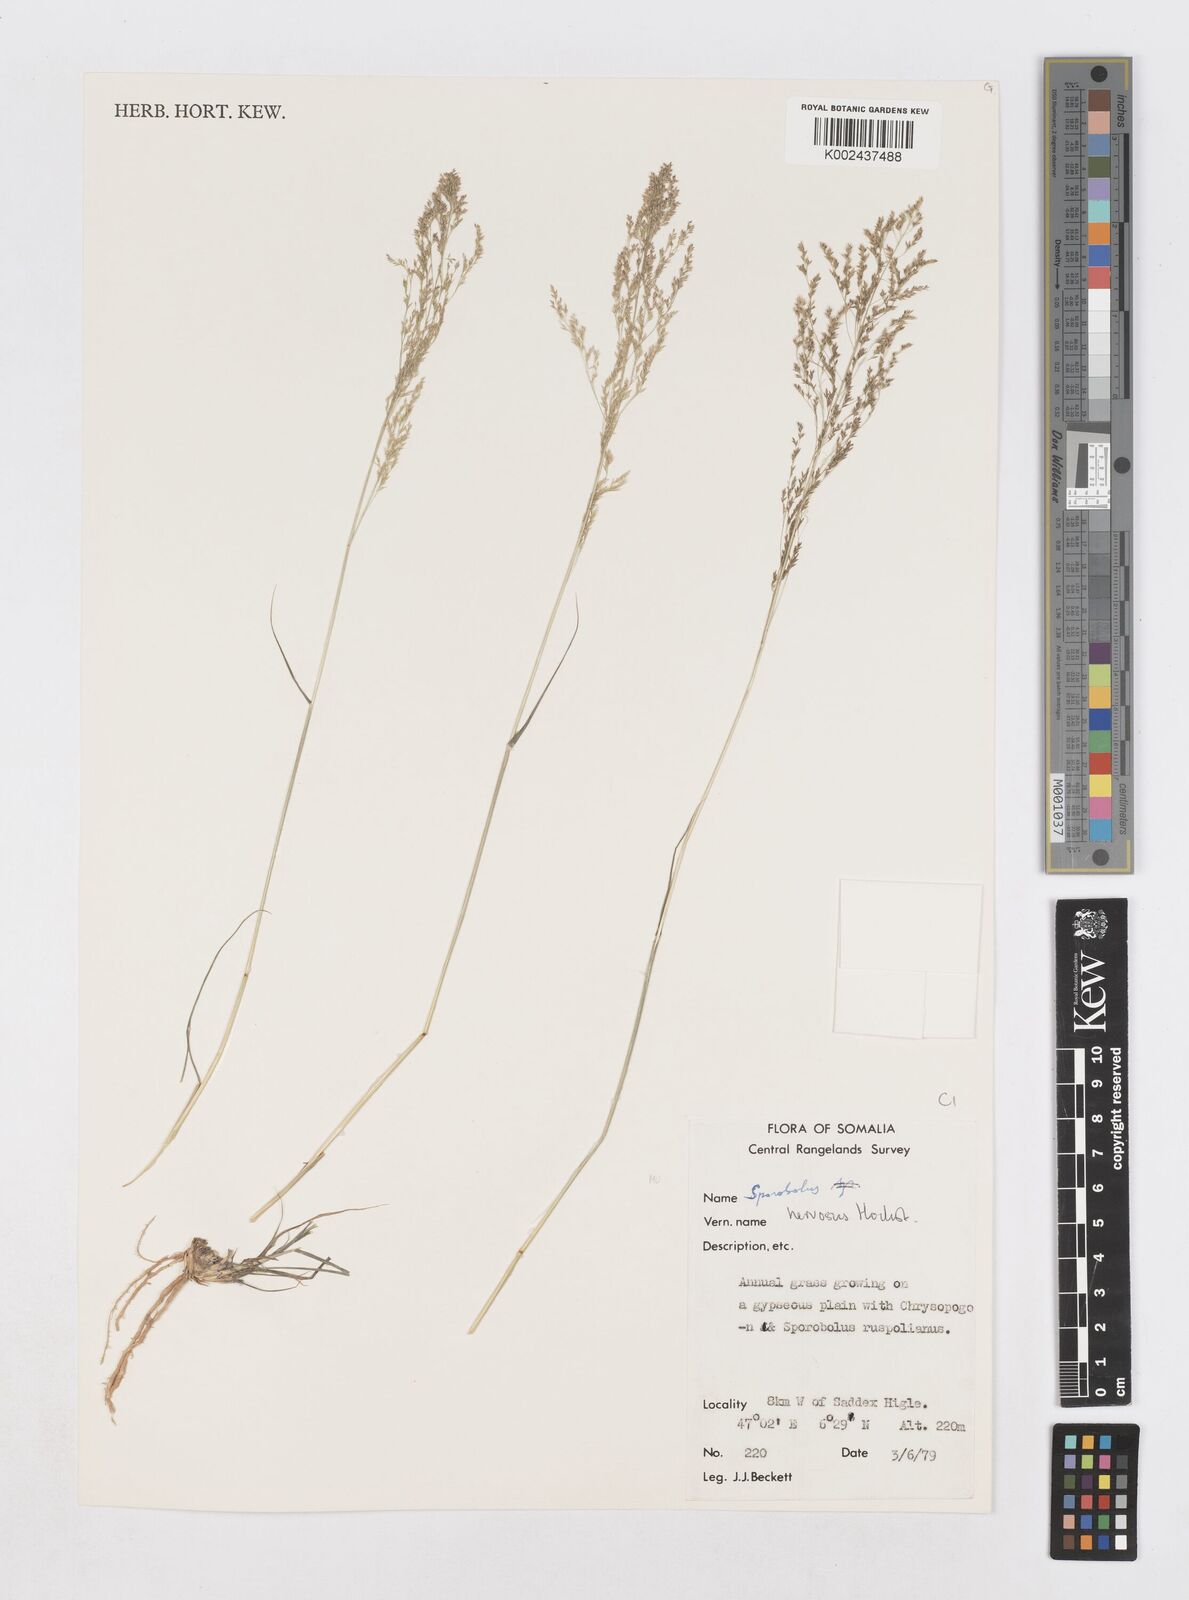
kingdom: Plantae
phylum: Tracheophyta
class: Liliopsida
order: Poales
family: Poaceae
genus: Sporobolus
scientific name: Sporobolus nervosus
